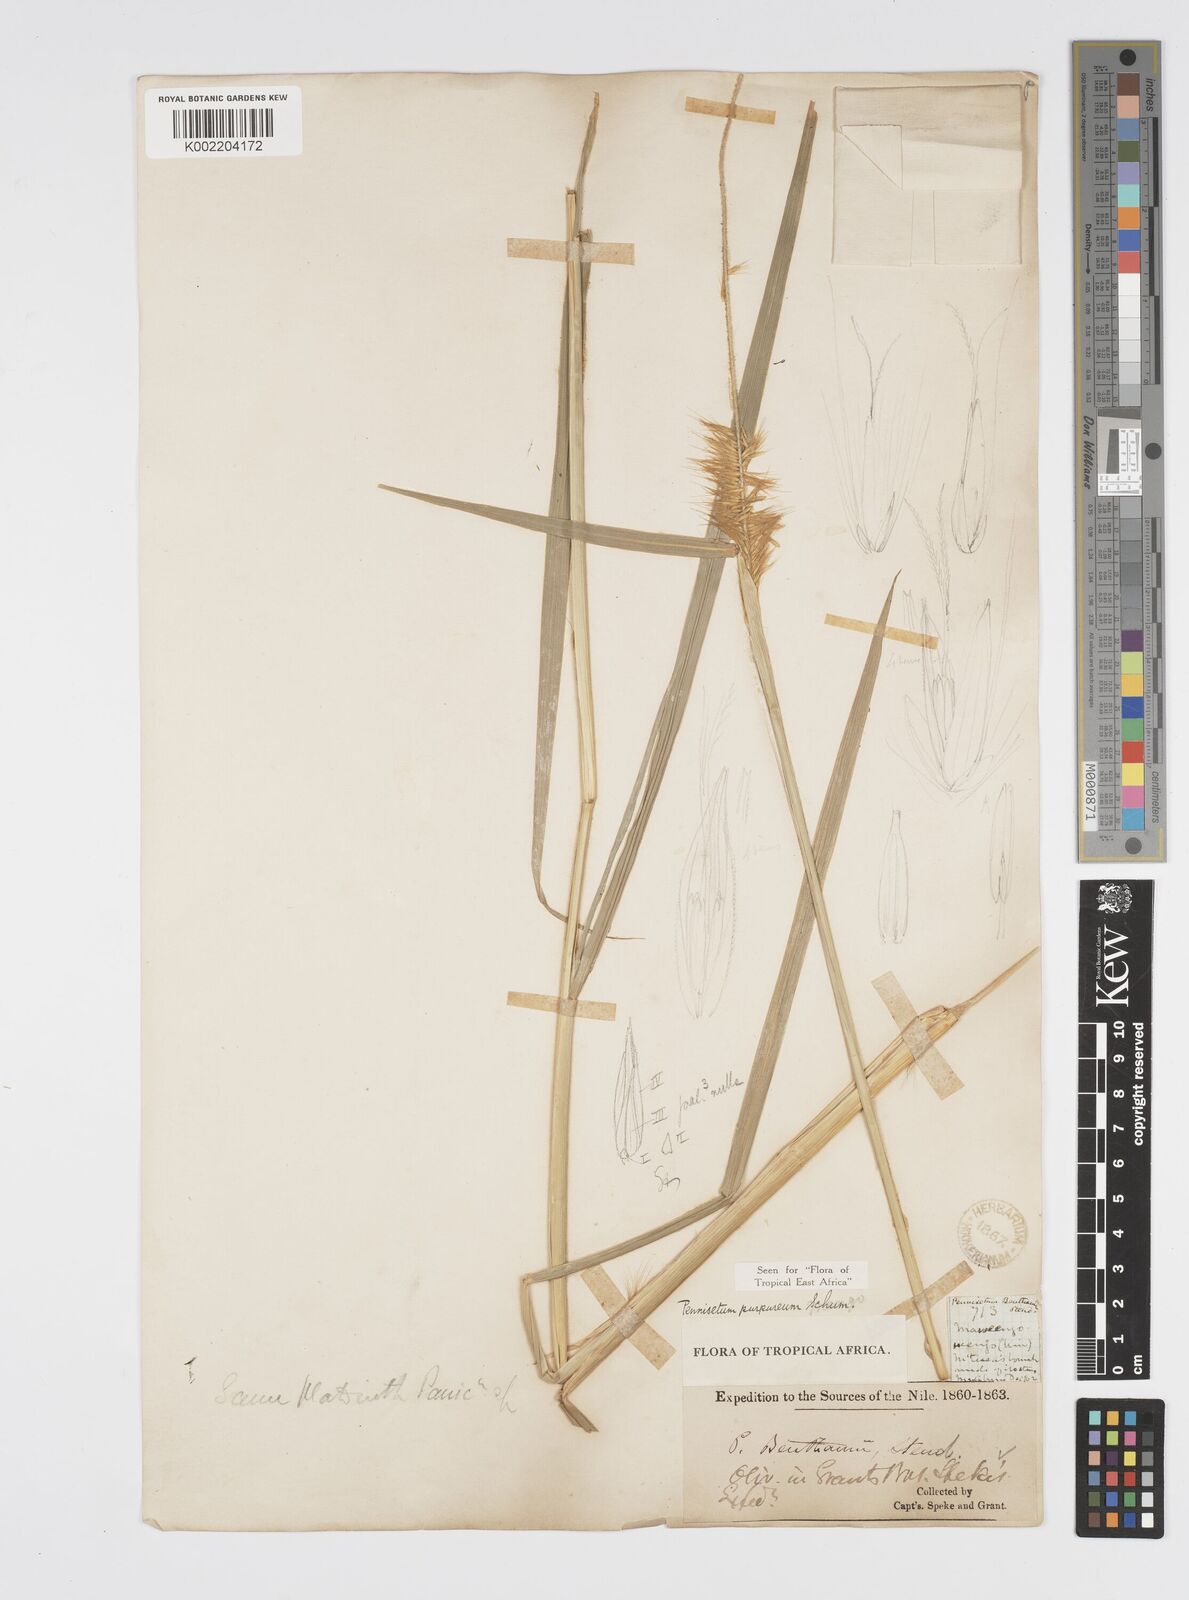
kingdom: Plantae
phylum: Tracheophyta
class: Liliopsida
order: Poales
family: Poaceae
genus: Cenchrus
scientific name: Cenchrus purpureus
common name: Elephant grass
